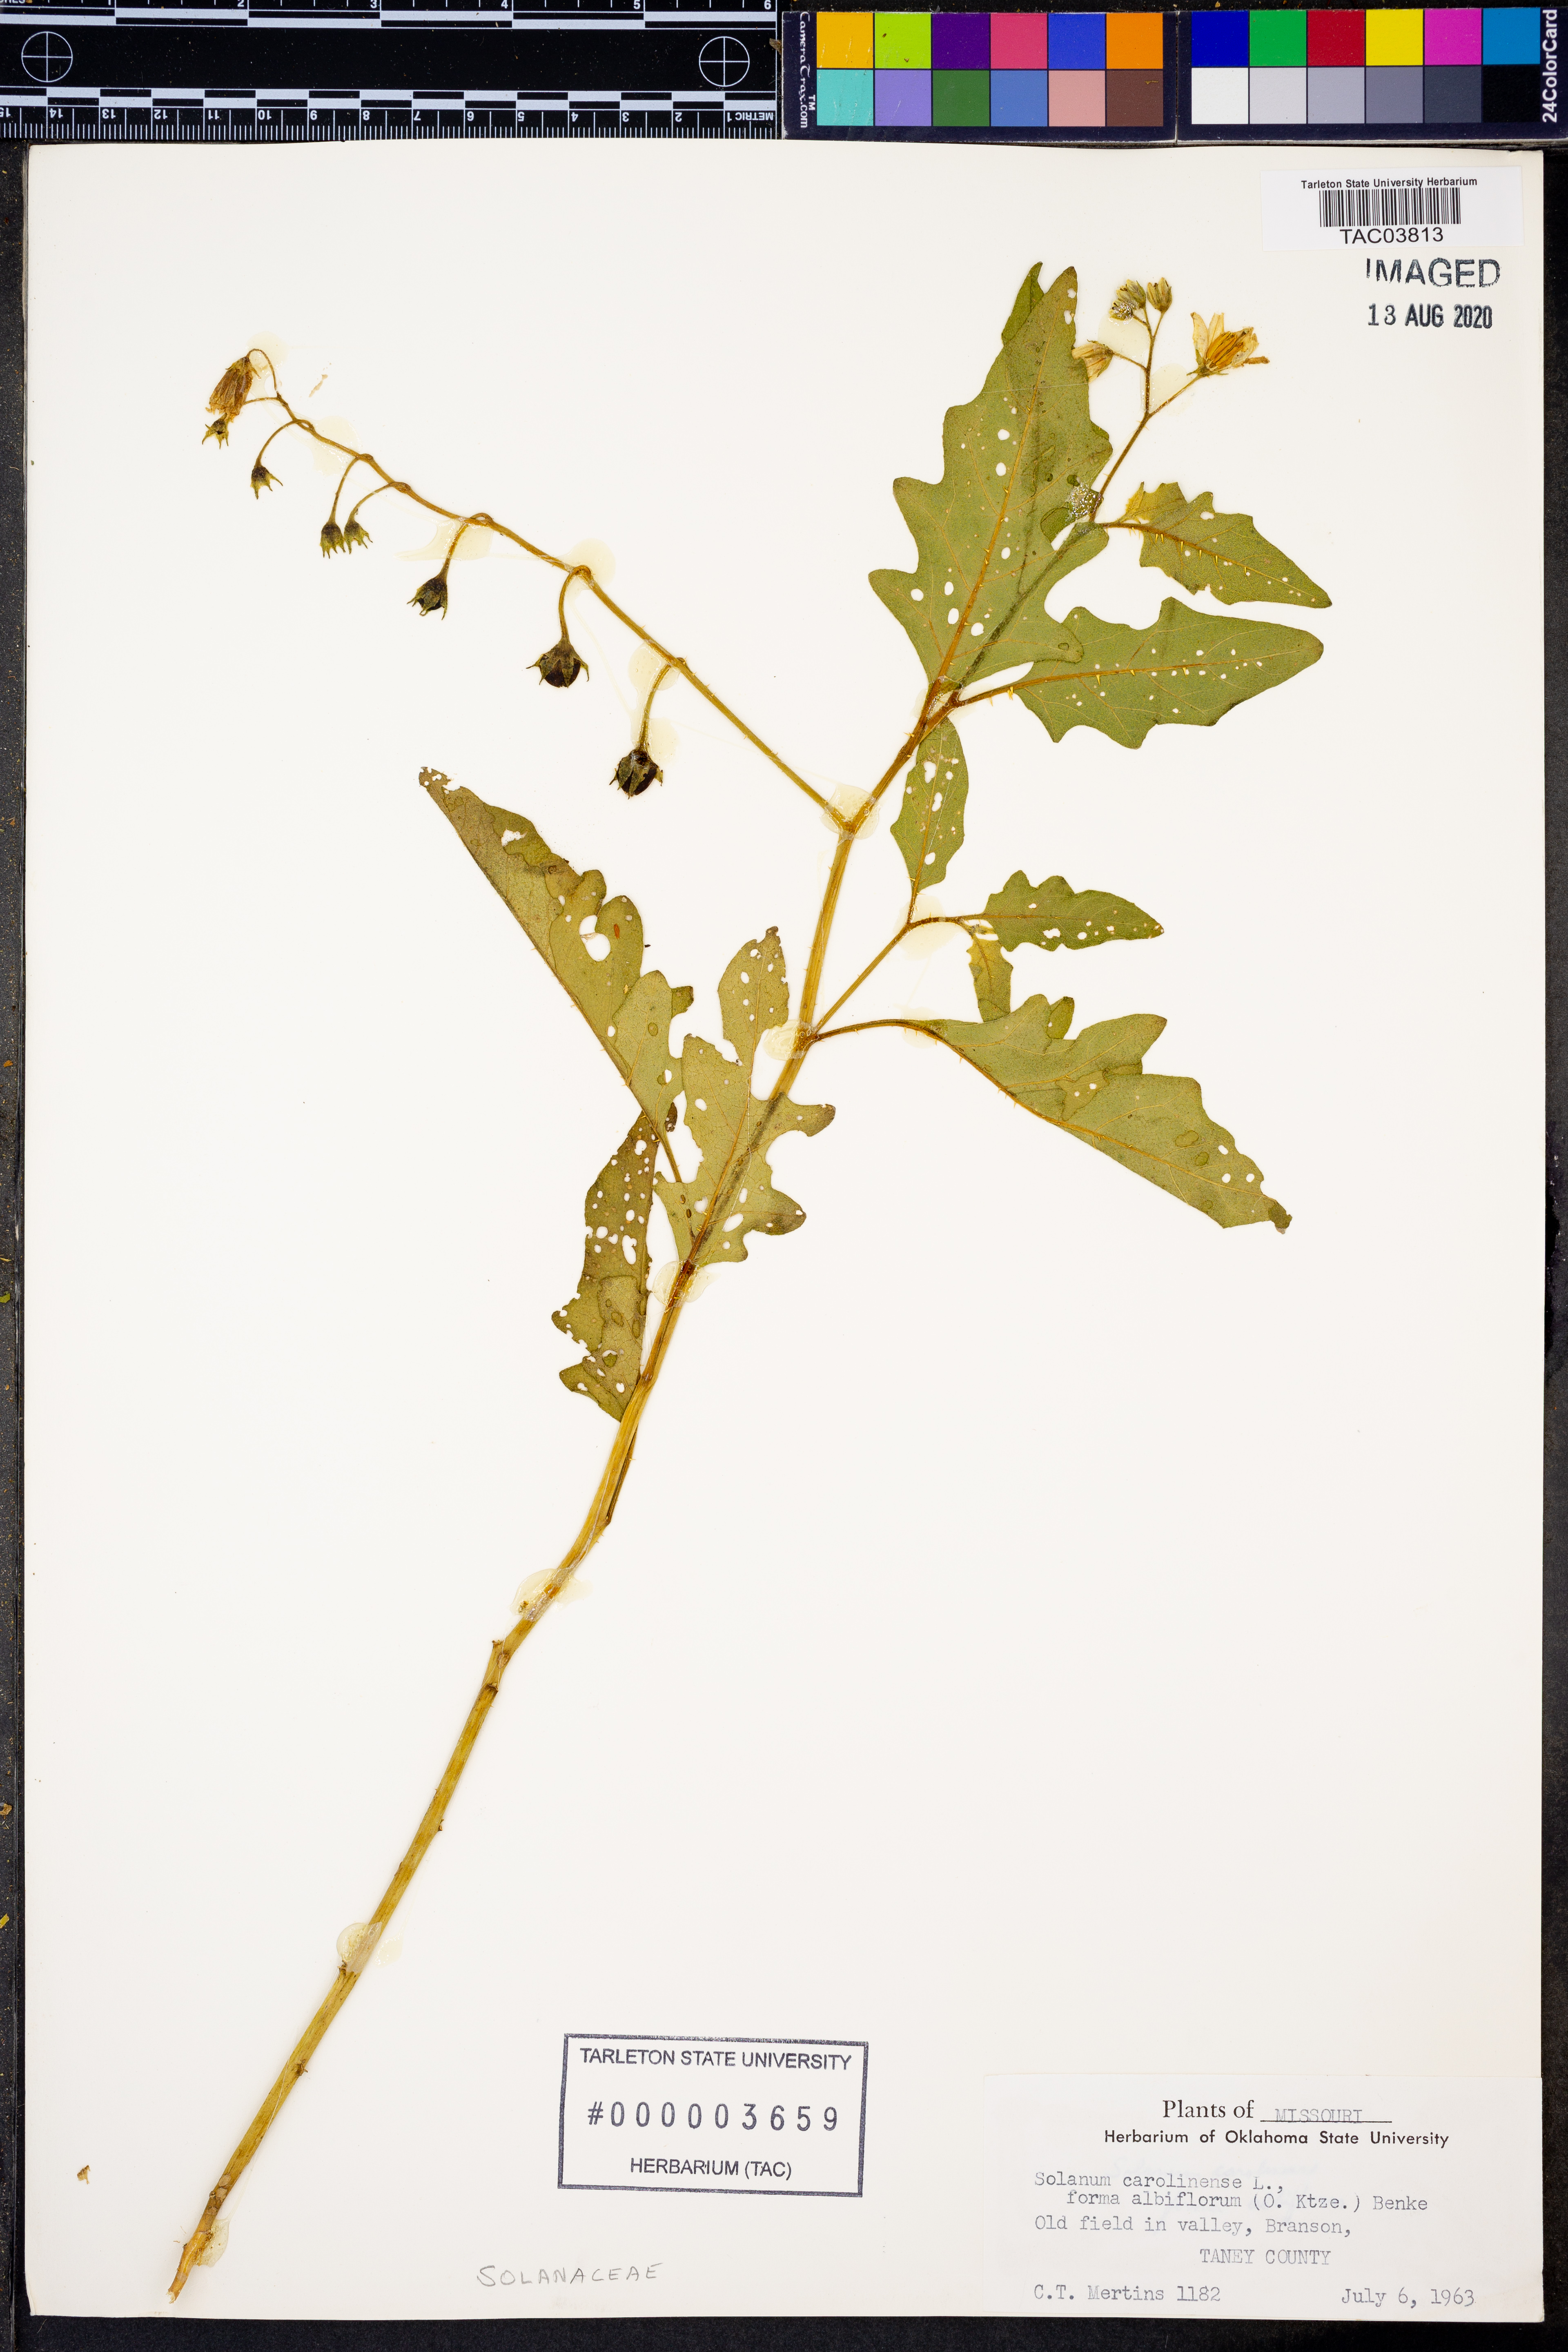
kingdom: Plantae
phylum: Tracheophyta
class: Magnoliopsida
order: Solanales
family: Solanaceae
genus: Solanum
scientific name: Solanum carolinense
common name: Horse-nettle
